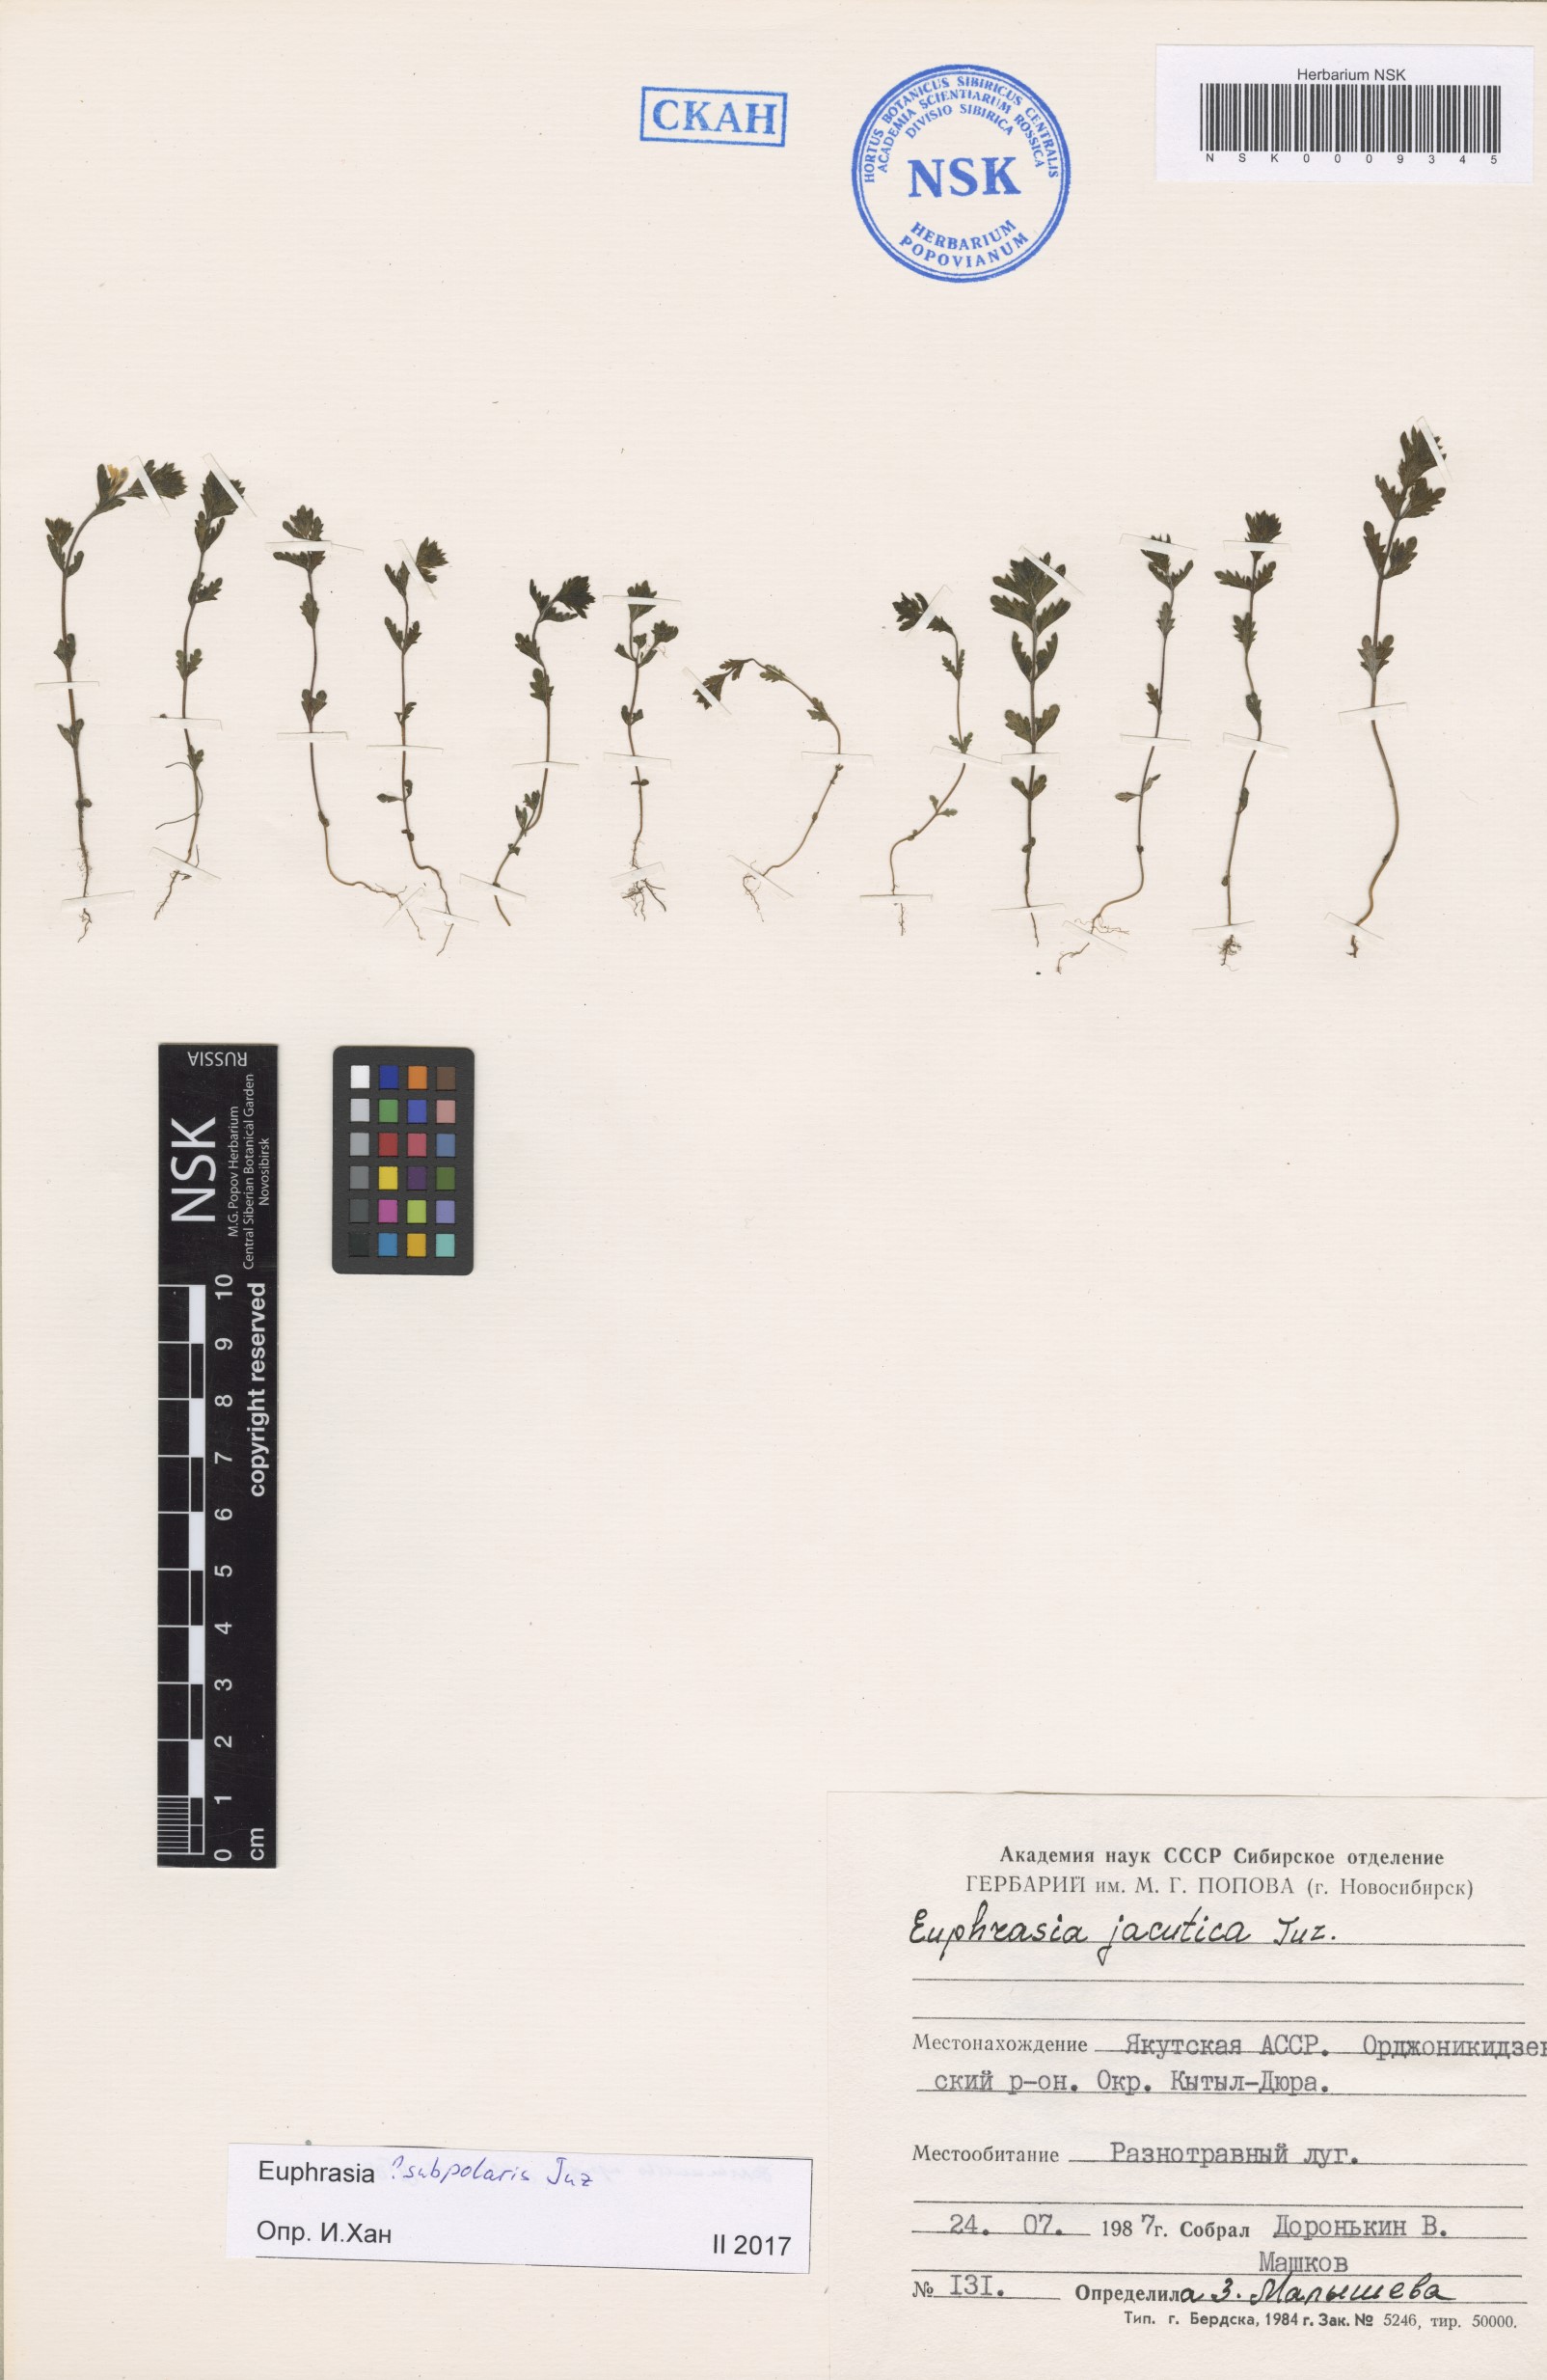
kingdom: Plantae
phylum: Tracheophyta
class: Magnoliopsida
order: Lamiales
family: Orobanchaceae
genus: Euphrasia
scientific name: Euphrasia hyperborea
